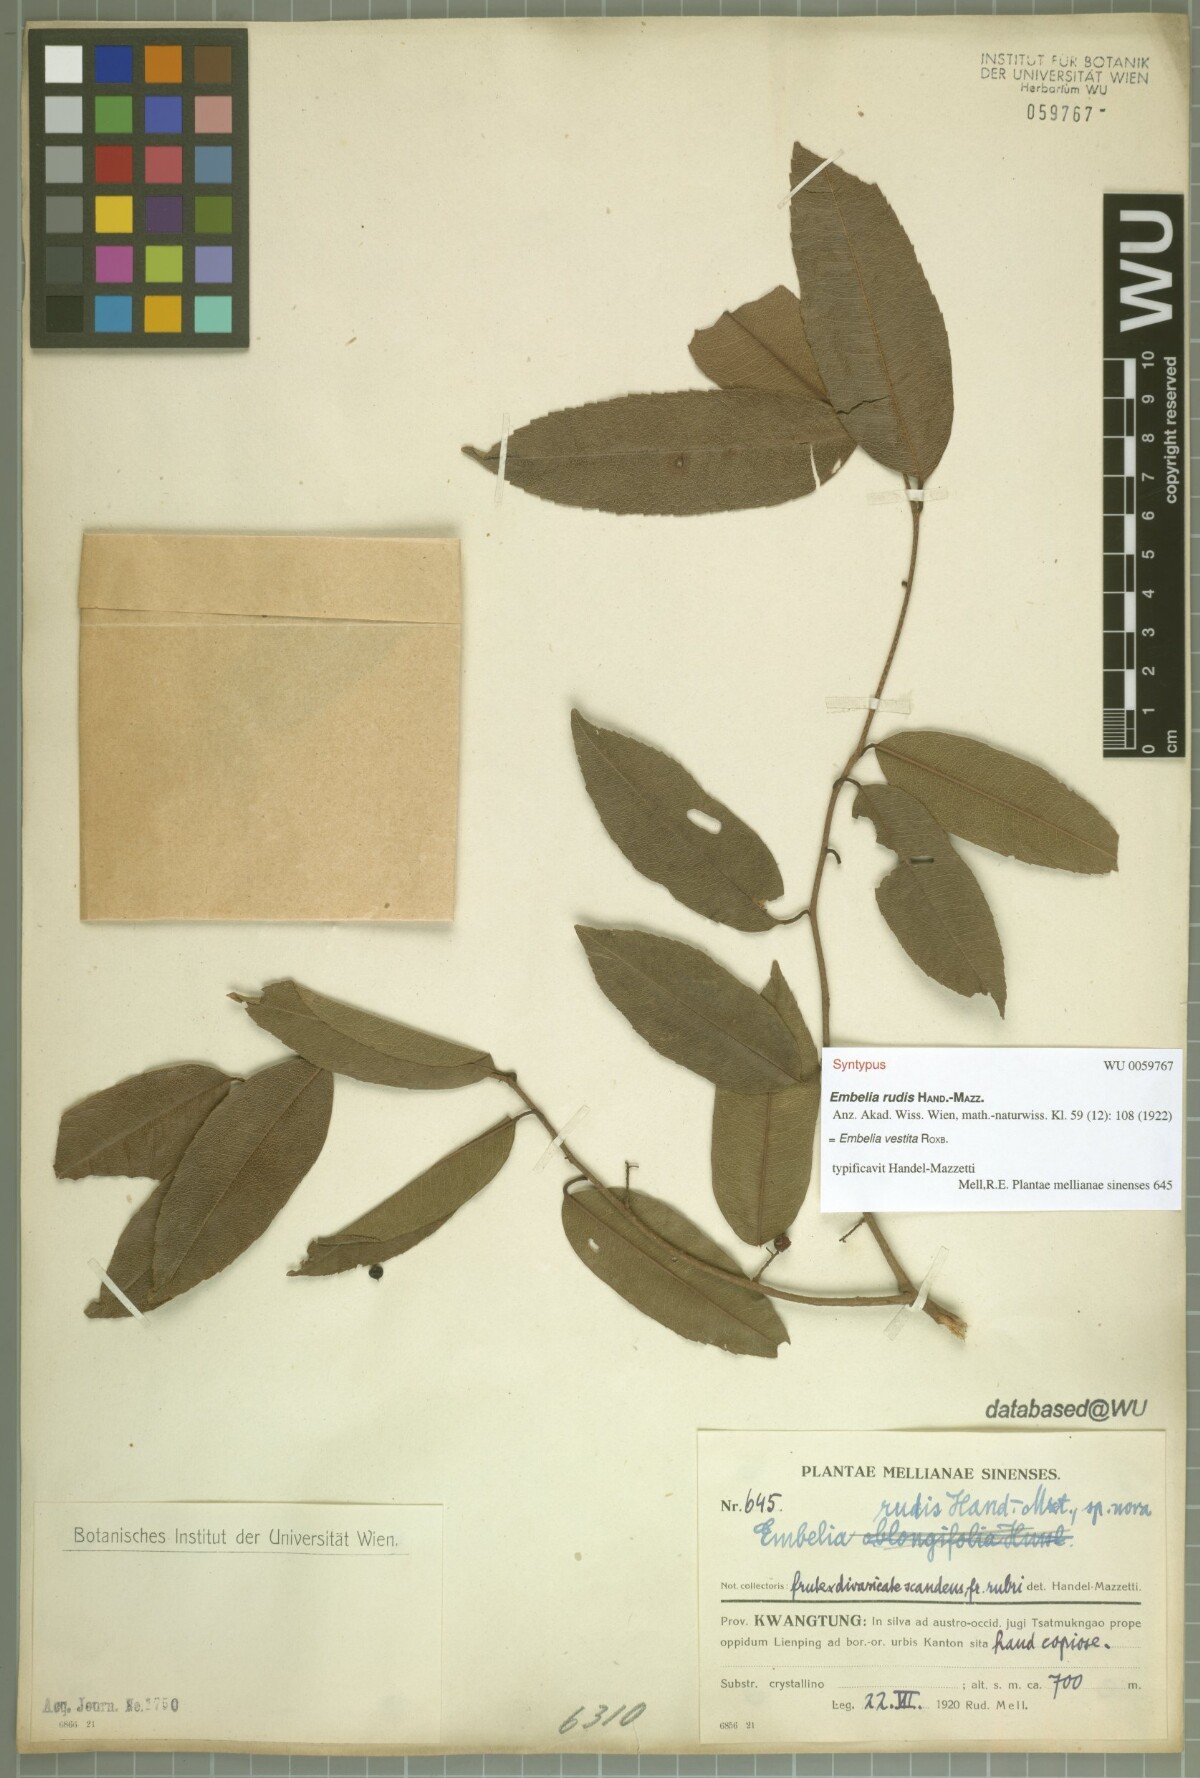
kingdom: Plantae
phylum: Tracheophyta
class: Magnoliopsida
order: Ericales
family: Primulaceae
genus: Embelia
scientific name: Embelia vestita
